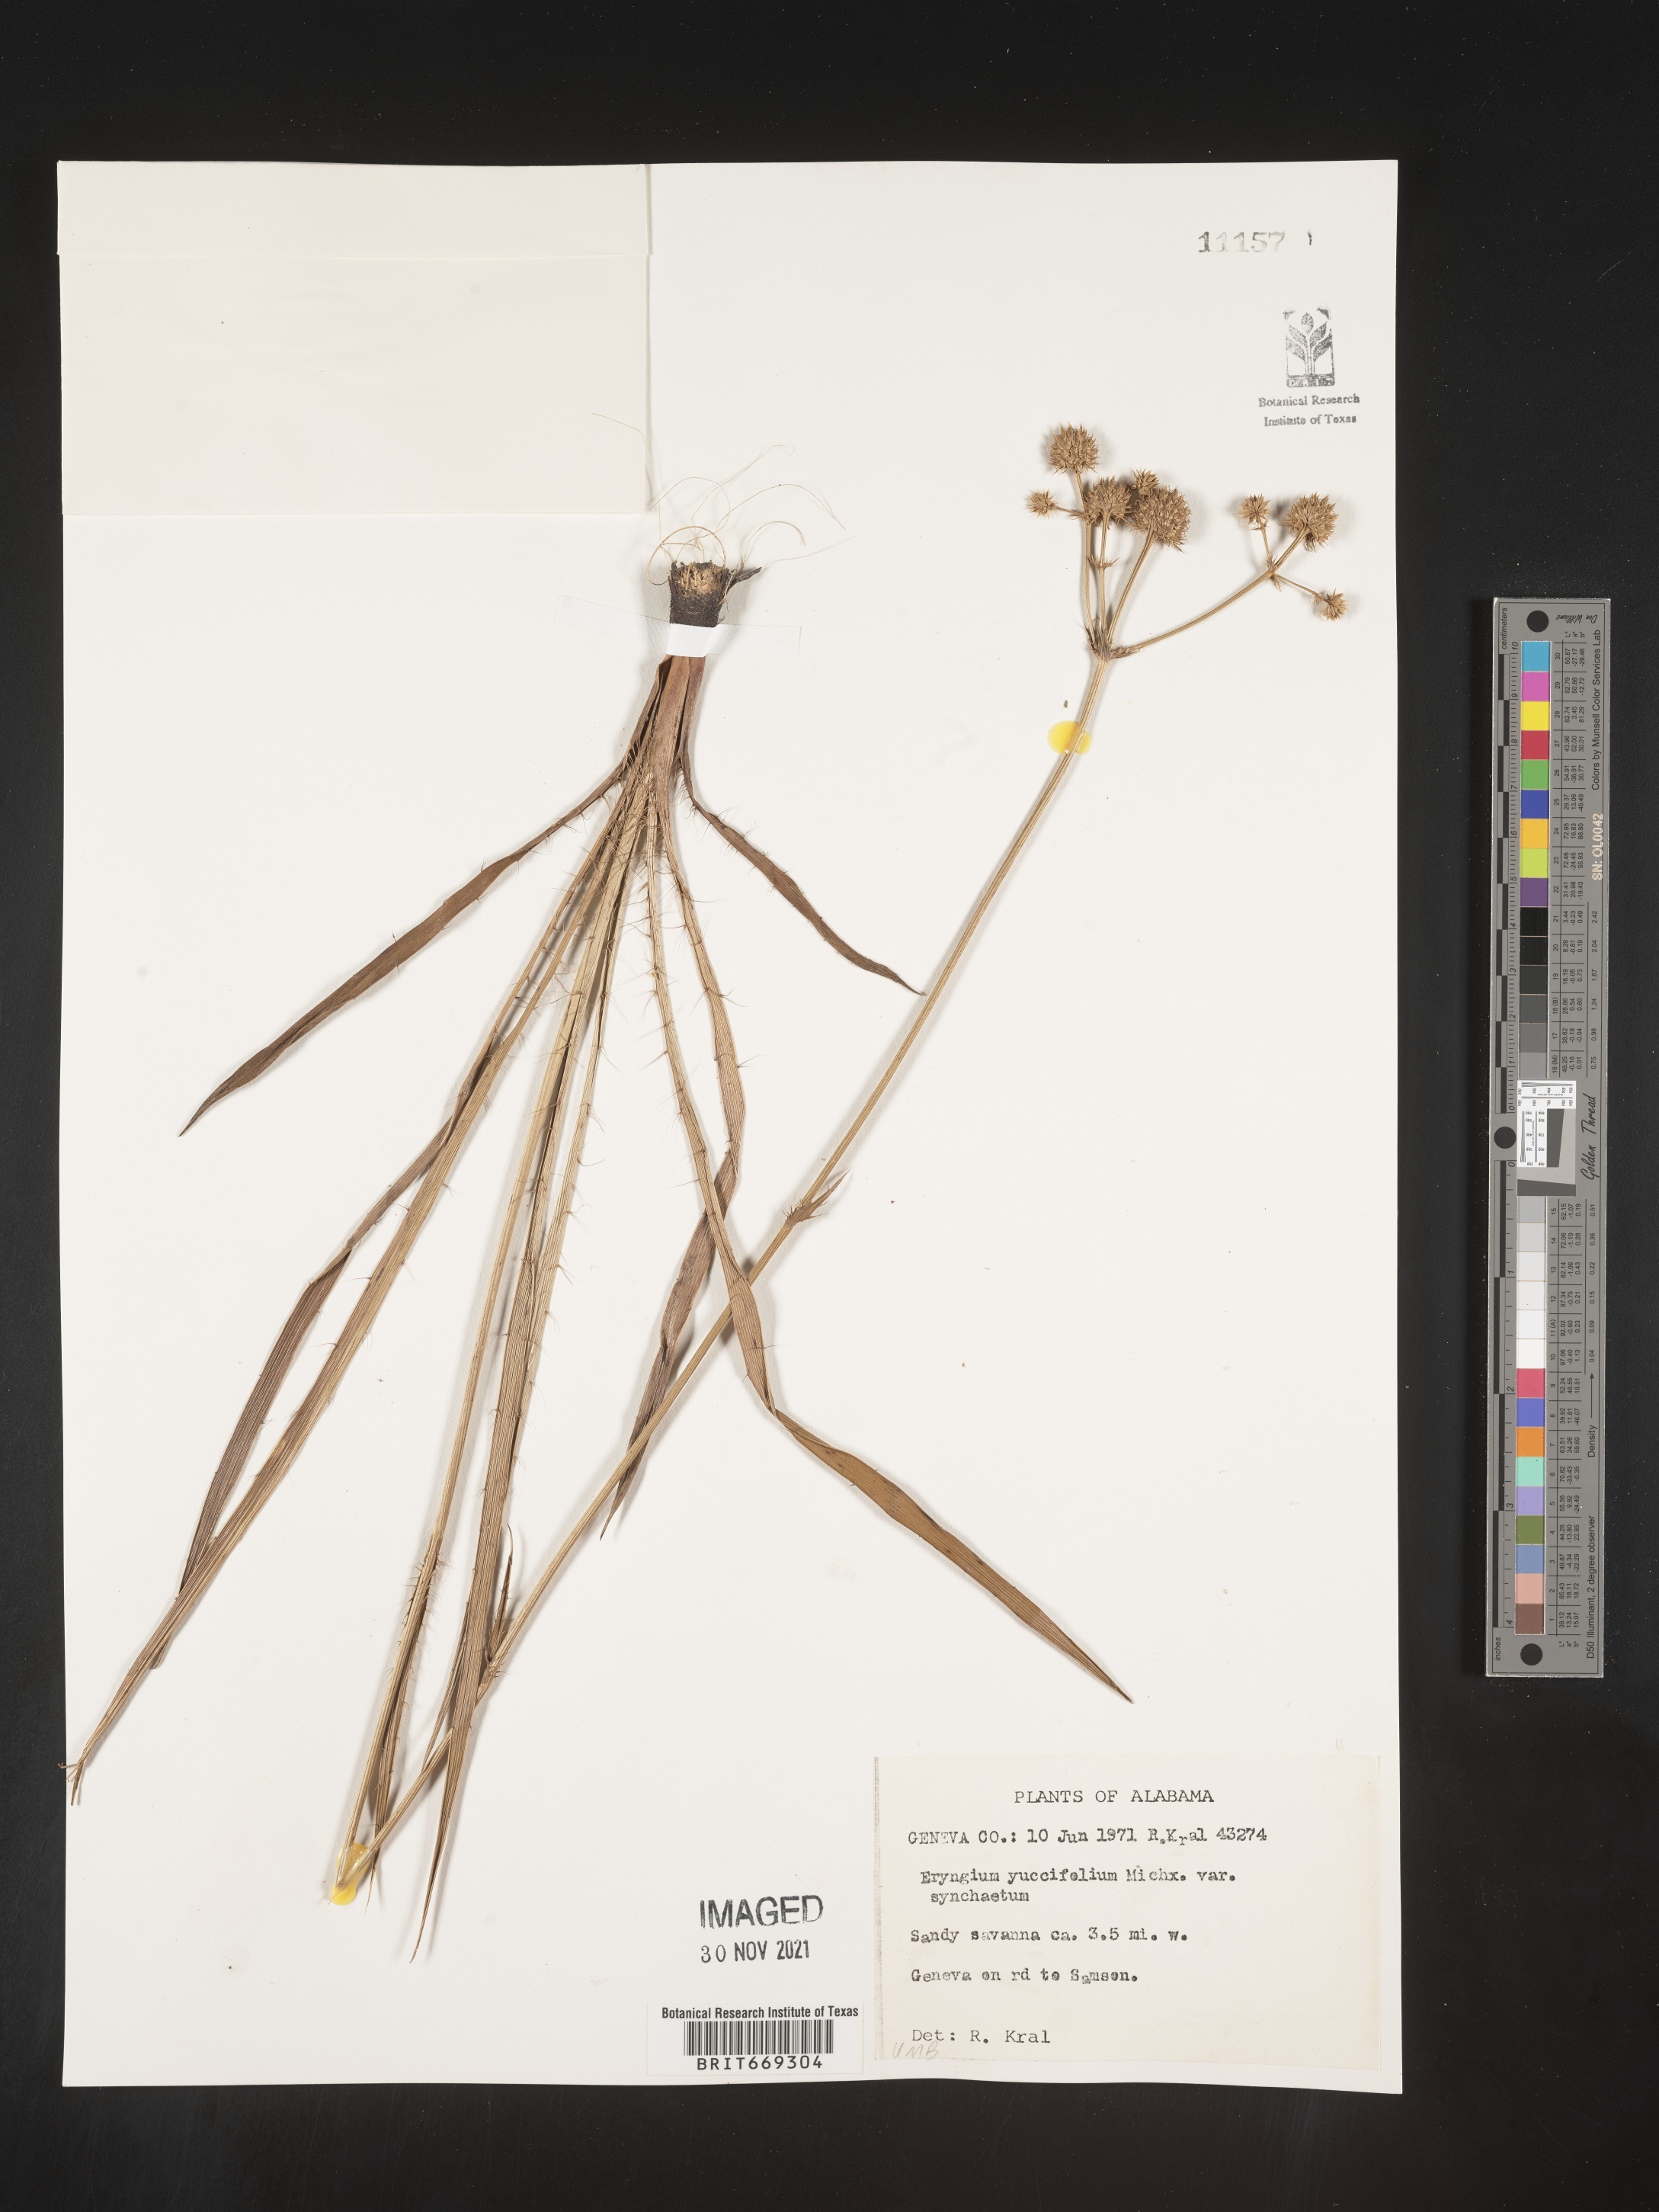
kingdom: Plantae
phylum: Tracheophyta
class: Magnoliopsida
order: Apiales
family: Apiaceae
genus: Eryngium
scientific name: Eryngium yuccifolium
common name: Button eryngo
